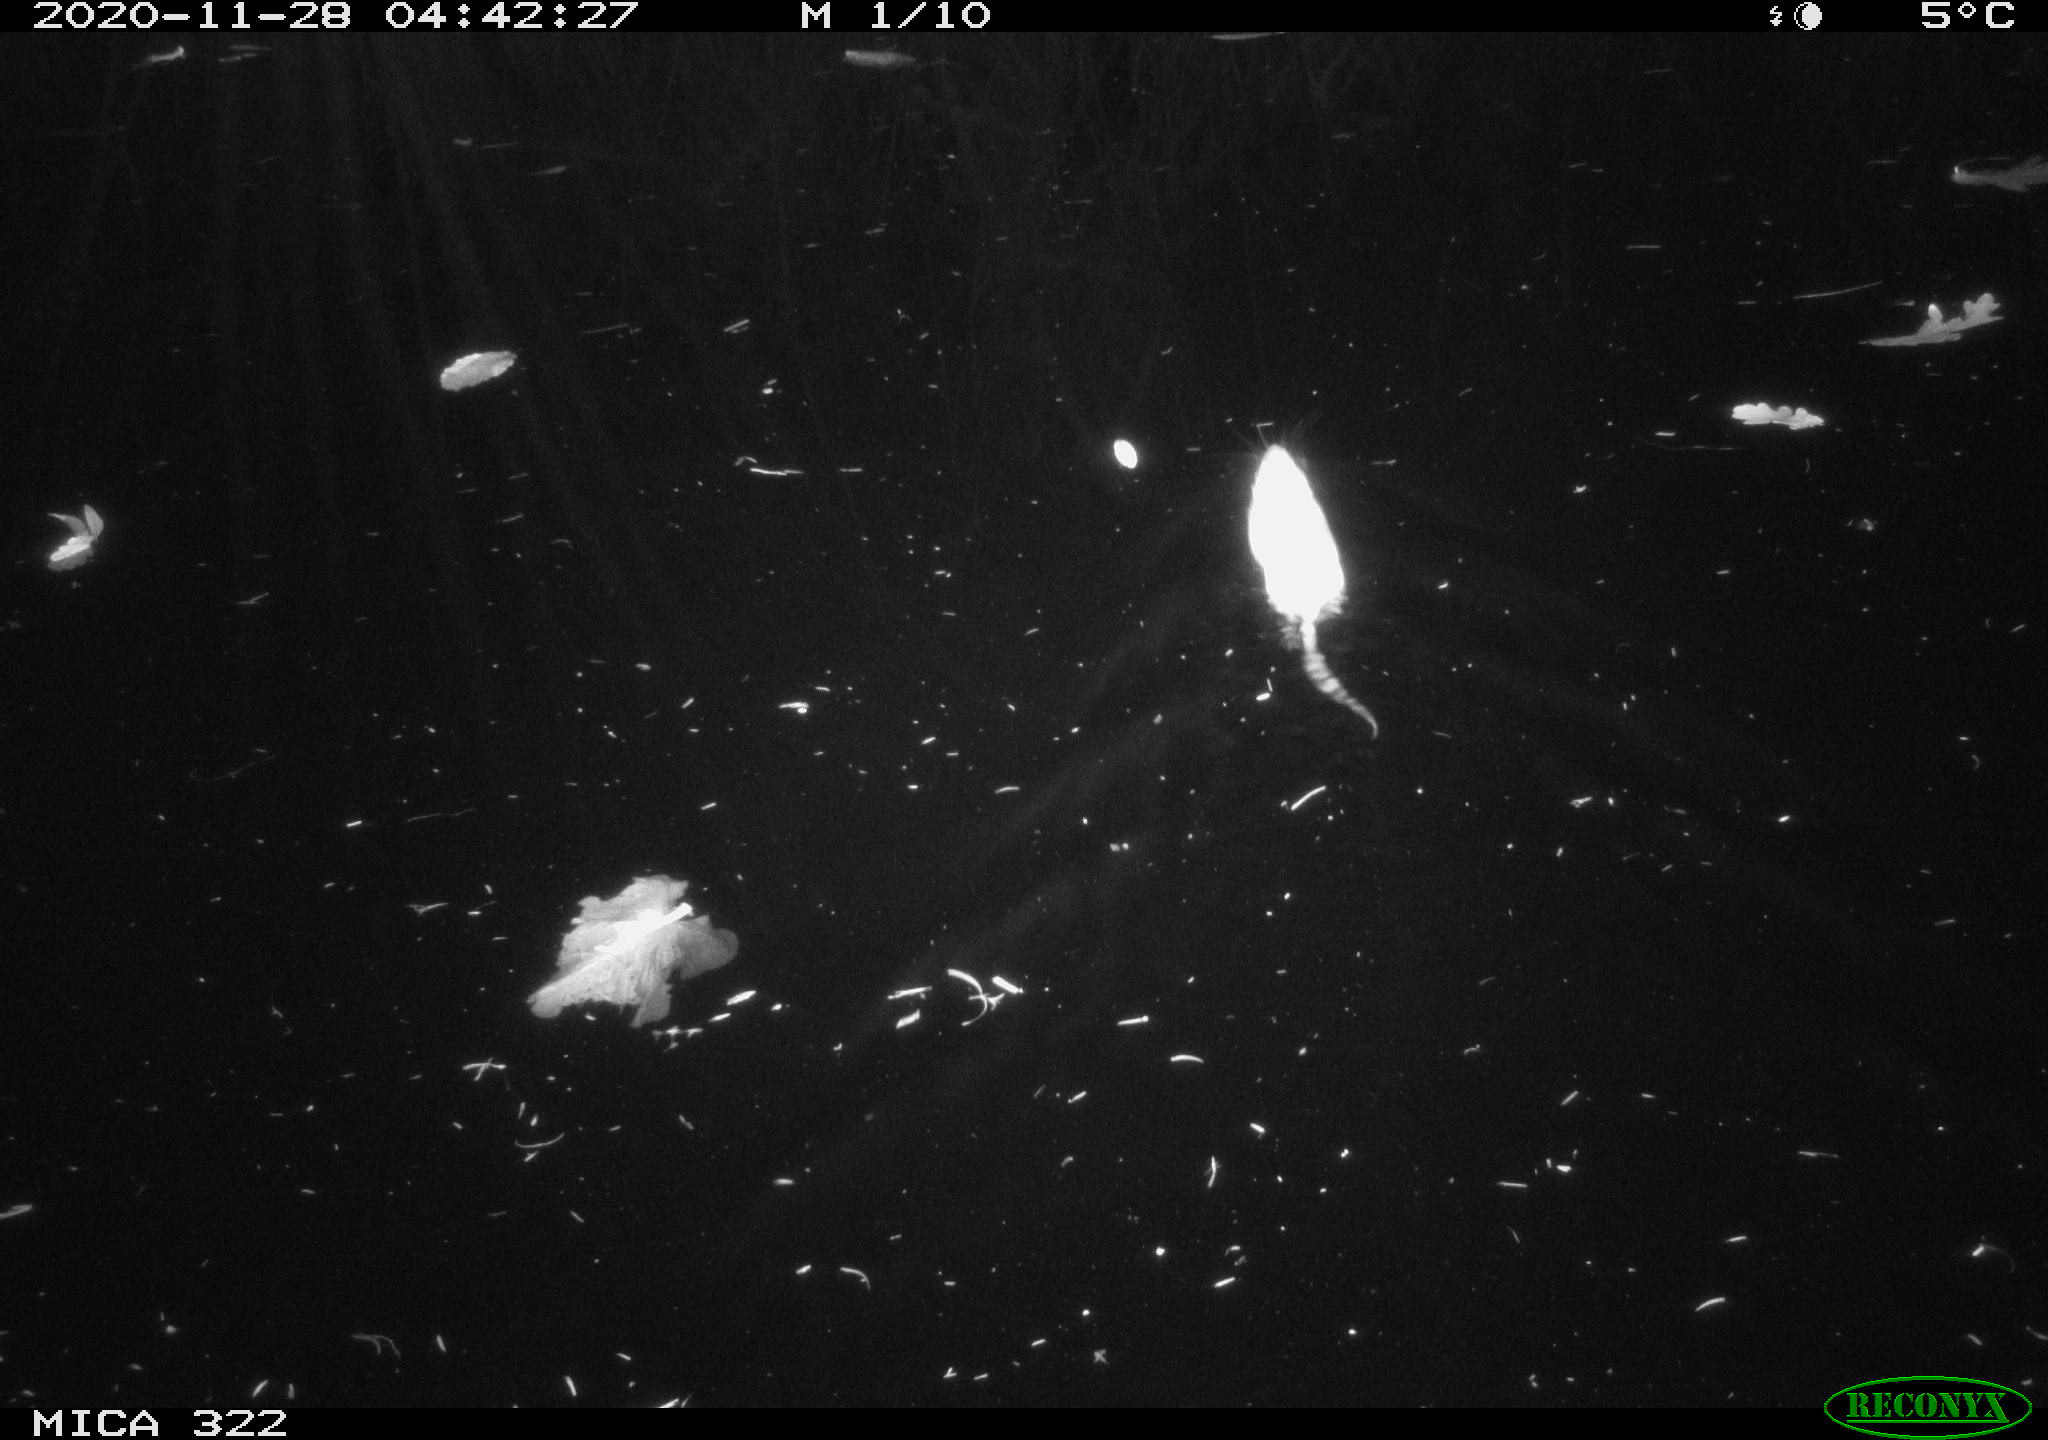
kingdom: Animalia
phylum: Chordata
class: Mammalia
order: Rodentia
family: Cricetidae
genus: Ondatra
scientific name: Ondatra zibethicus
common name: Muskrat
